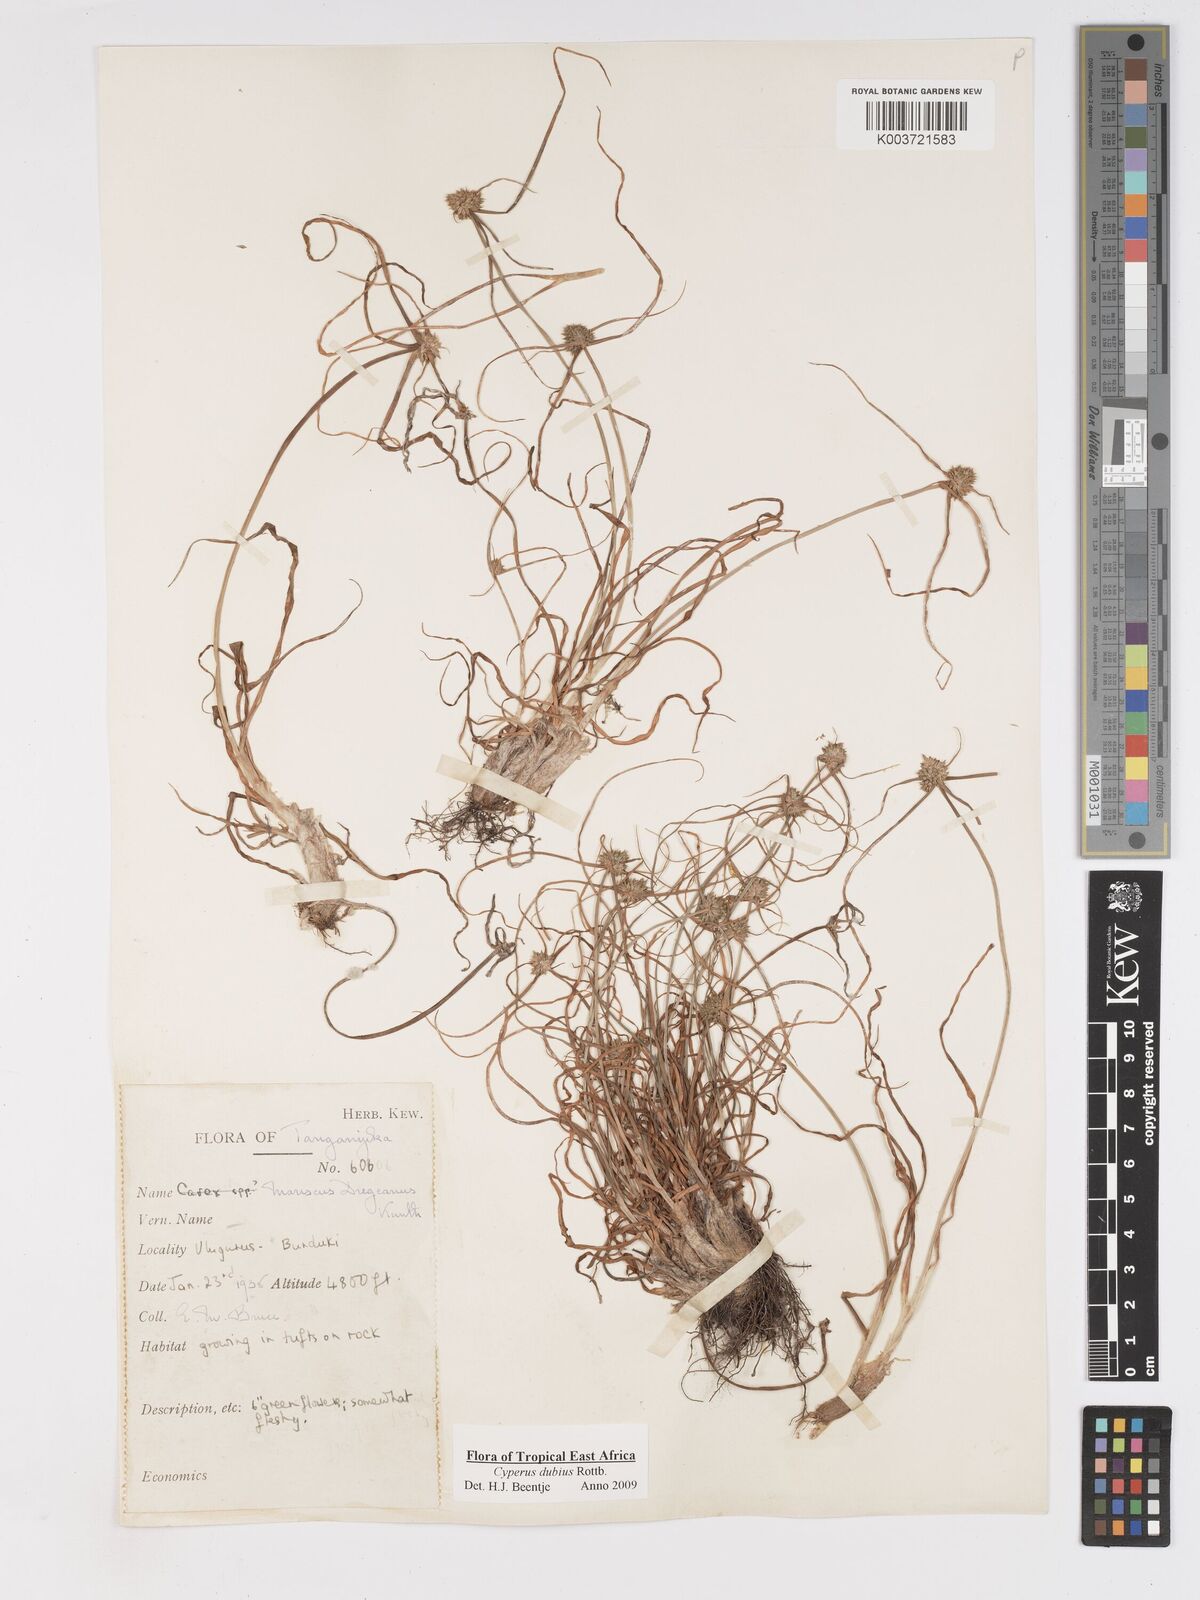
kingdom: Plantae
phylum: Tracheophyta
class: Liliopsida
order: Poales
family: Cyperaceae
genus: Cyperus
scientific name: Cyperus dubius
